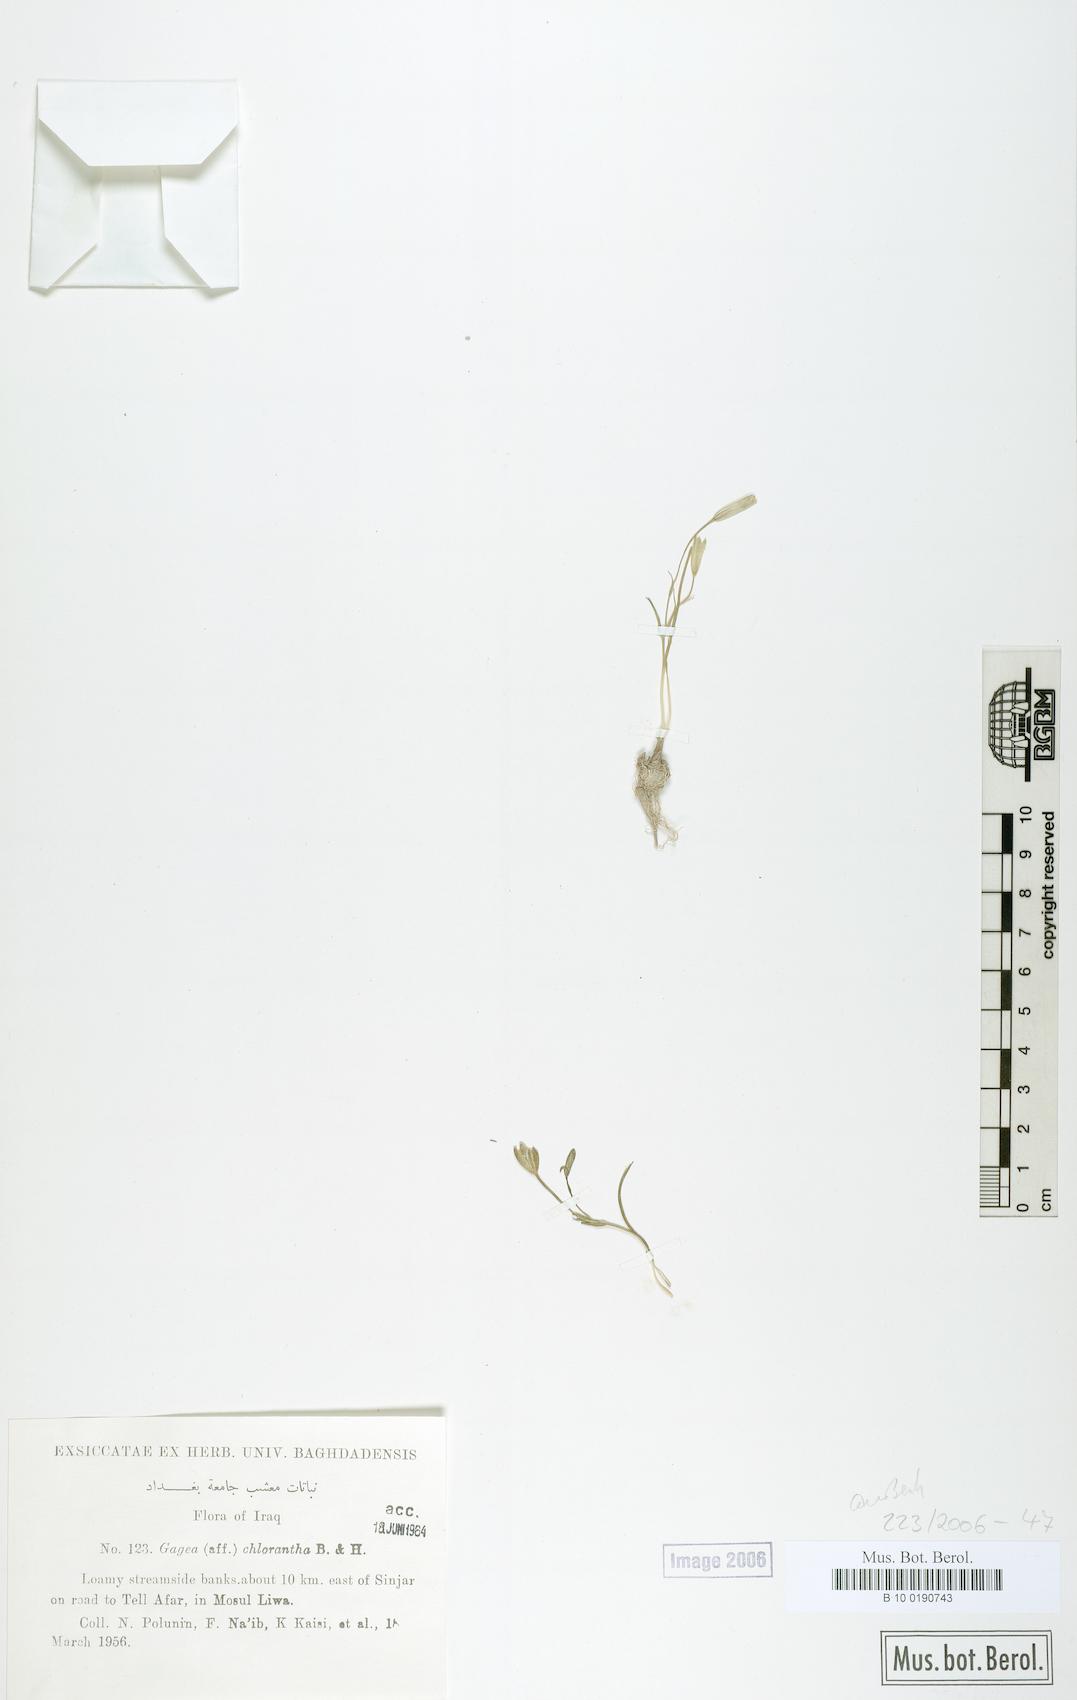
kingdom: Plantae
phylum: Tracheophyta
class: Liliopsida
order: Liliales
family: Liliaceae
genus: Gagea
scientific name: Gagea chlorantha
